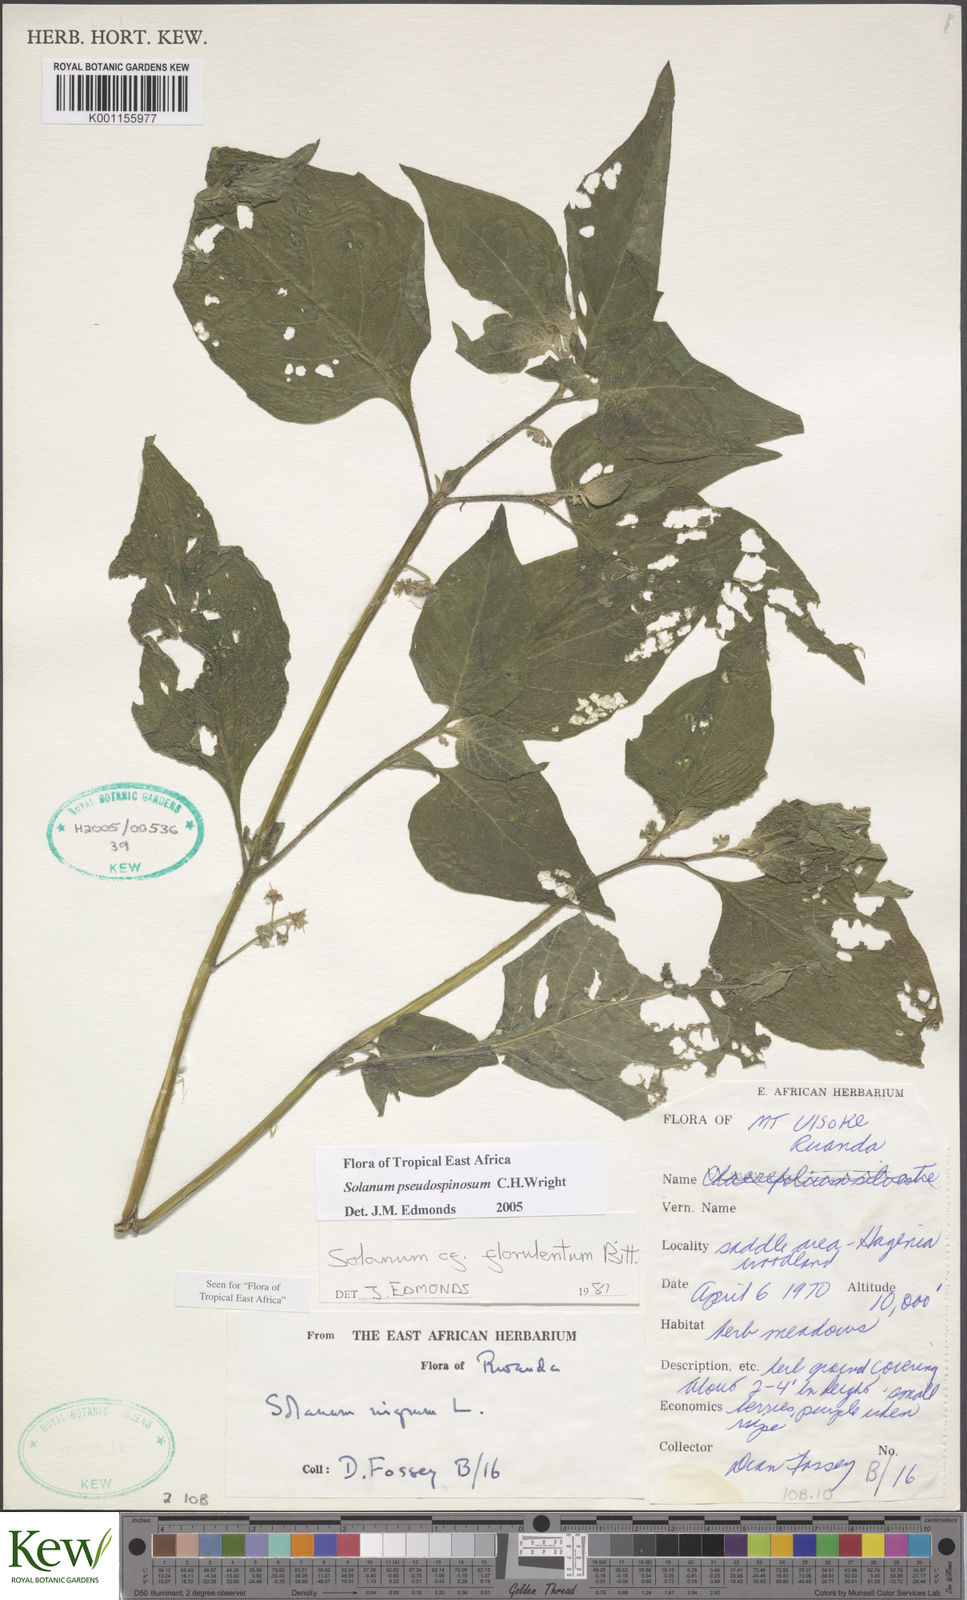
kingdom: Plantae
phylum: Tracheophyta
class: Magnoliopsida
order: Solanales
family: Solanaceae
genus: Solanum
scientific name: Solanum tarderemotum
